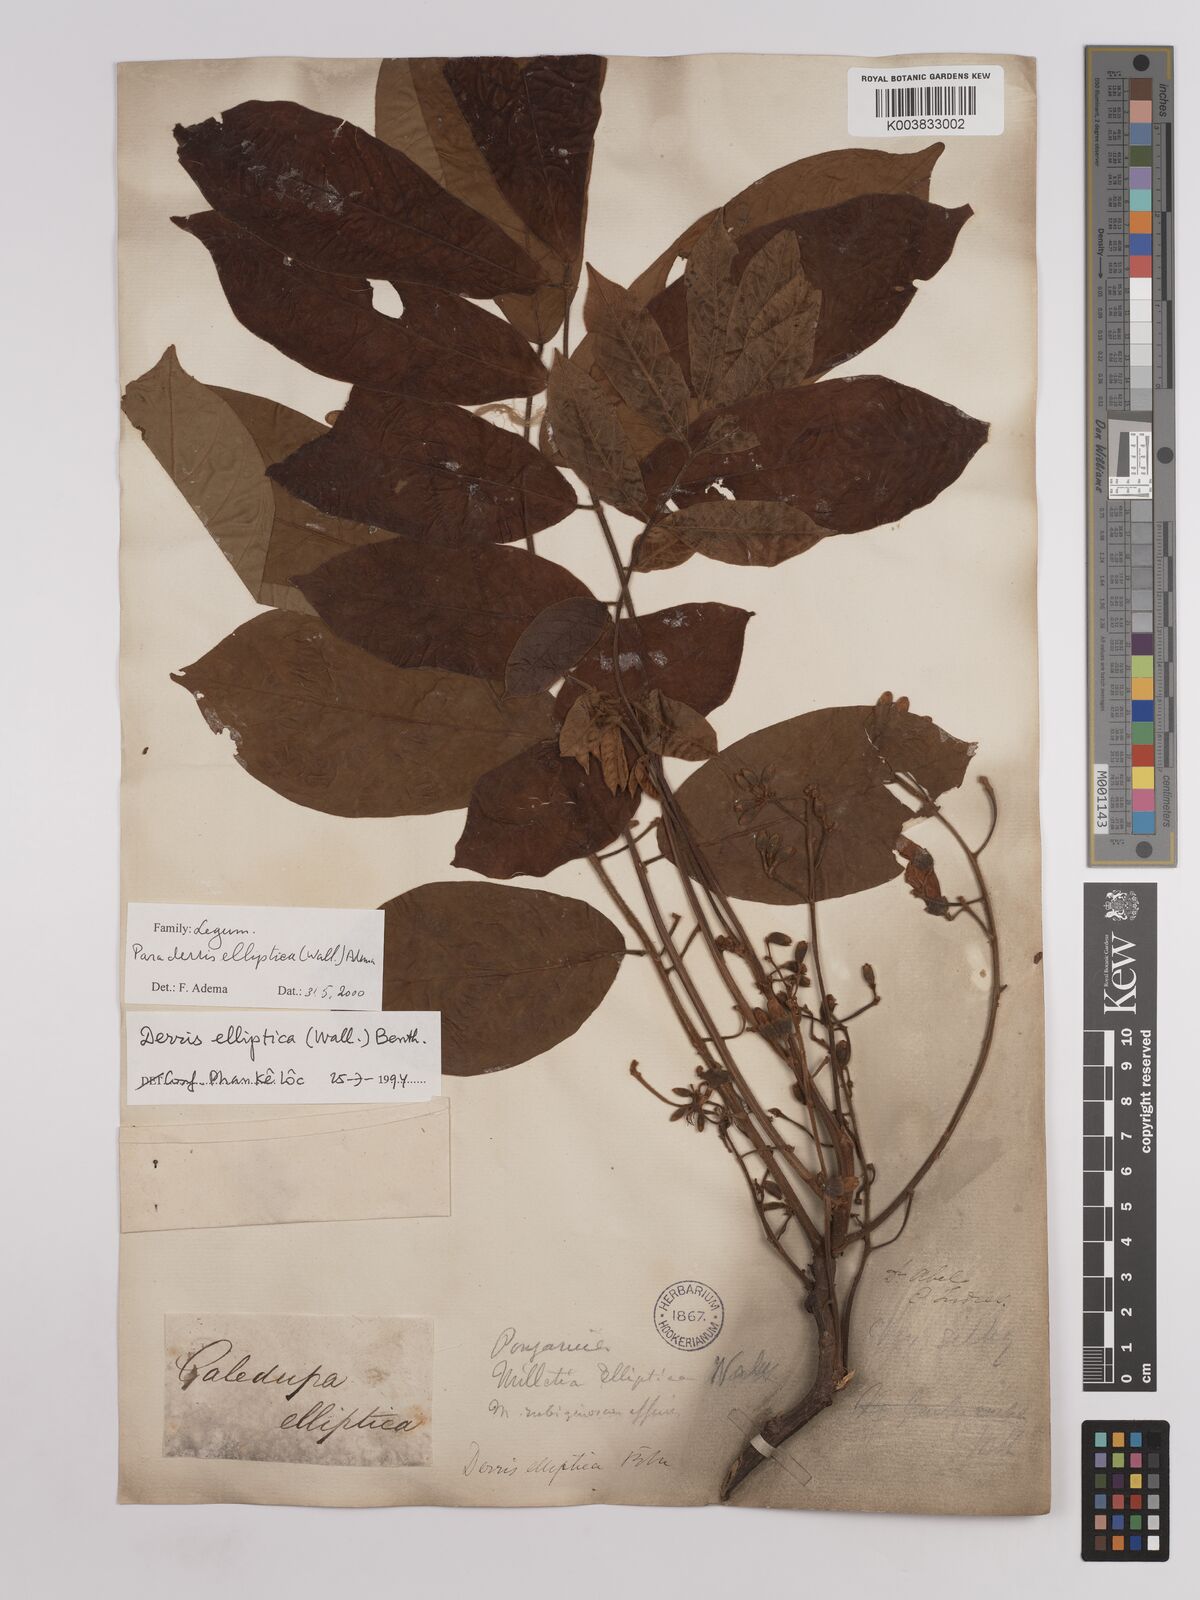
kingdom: Plantae
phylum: Tracheophyta
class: Magnoliopsida
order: Fabales
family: Fabaceae
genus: Derris
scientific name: Derris elliptica
